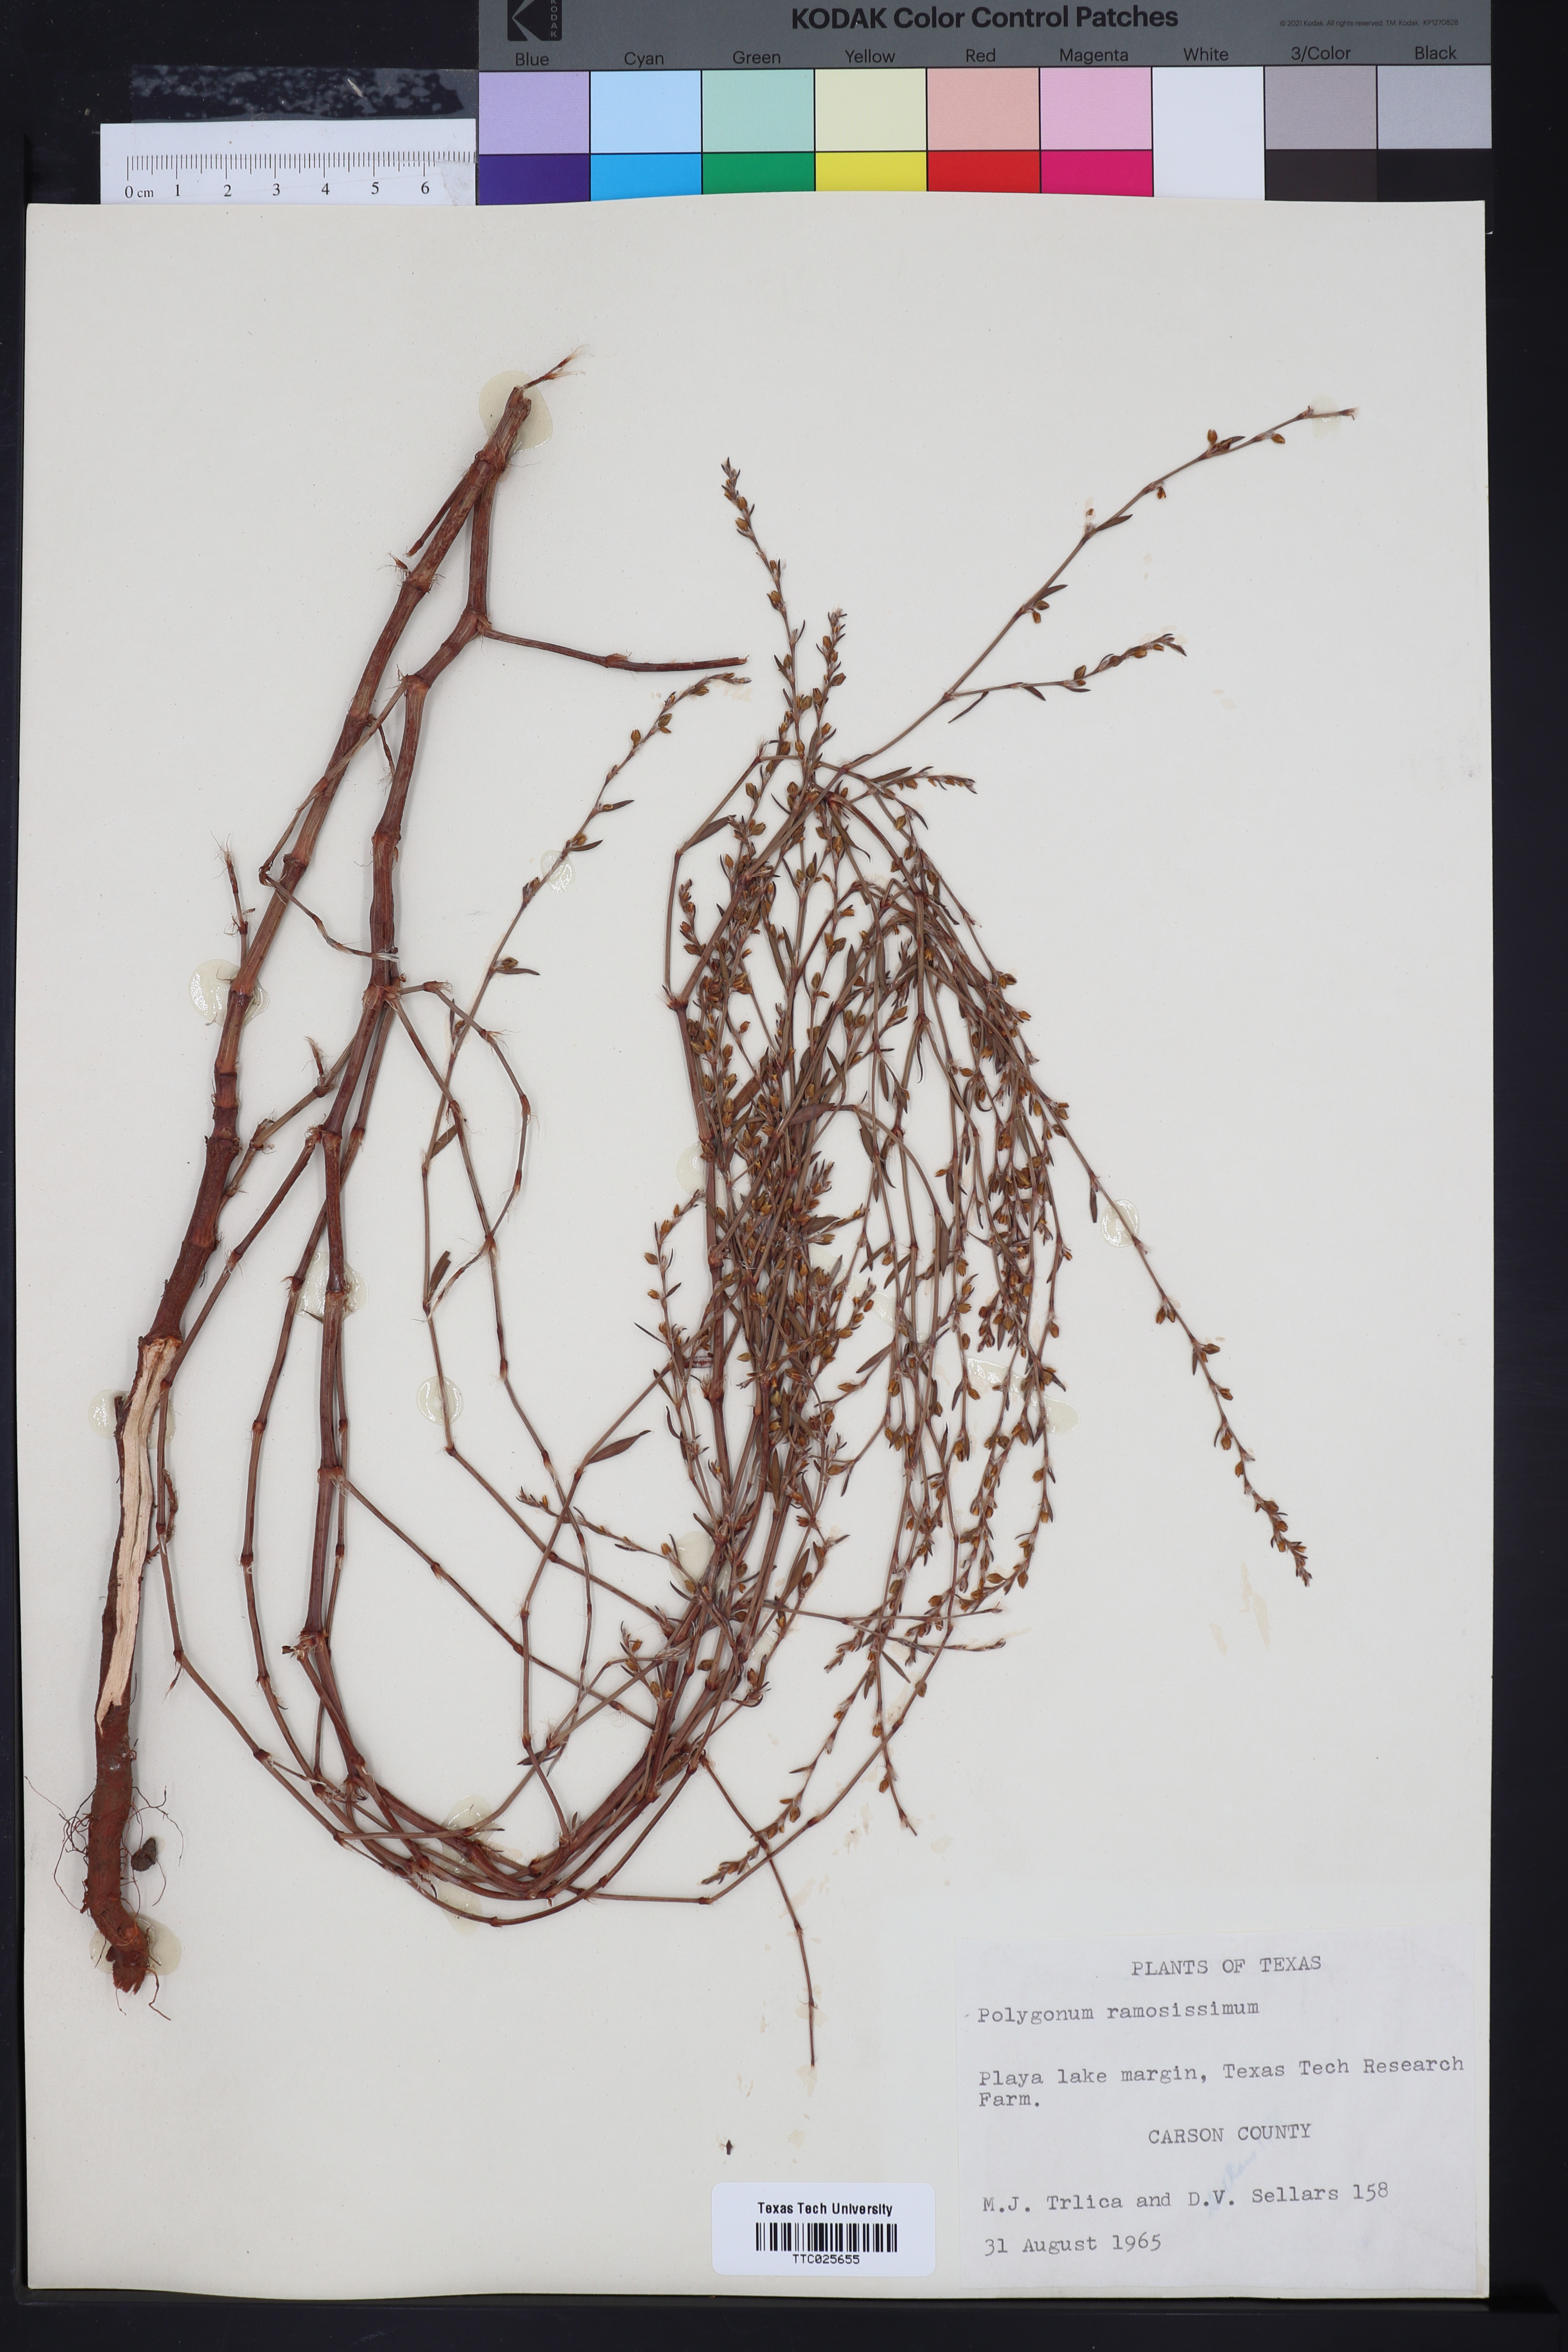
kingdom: Plantae
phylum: Tracheophyta
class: Magnoliopsida
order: Caryophyllales
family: Polygonaceae
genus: Polygonum
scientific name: Polygonum ramosissimum
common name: Bushy knotweed
